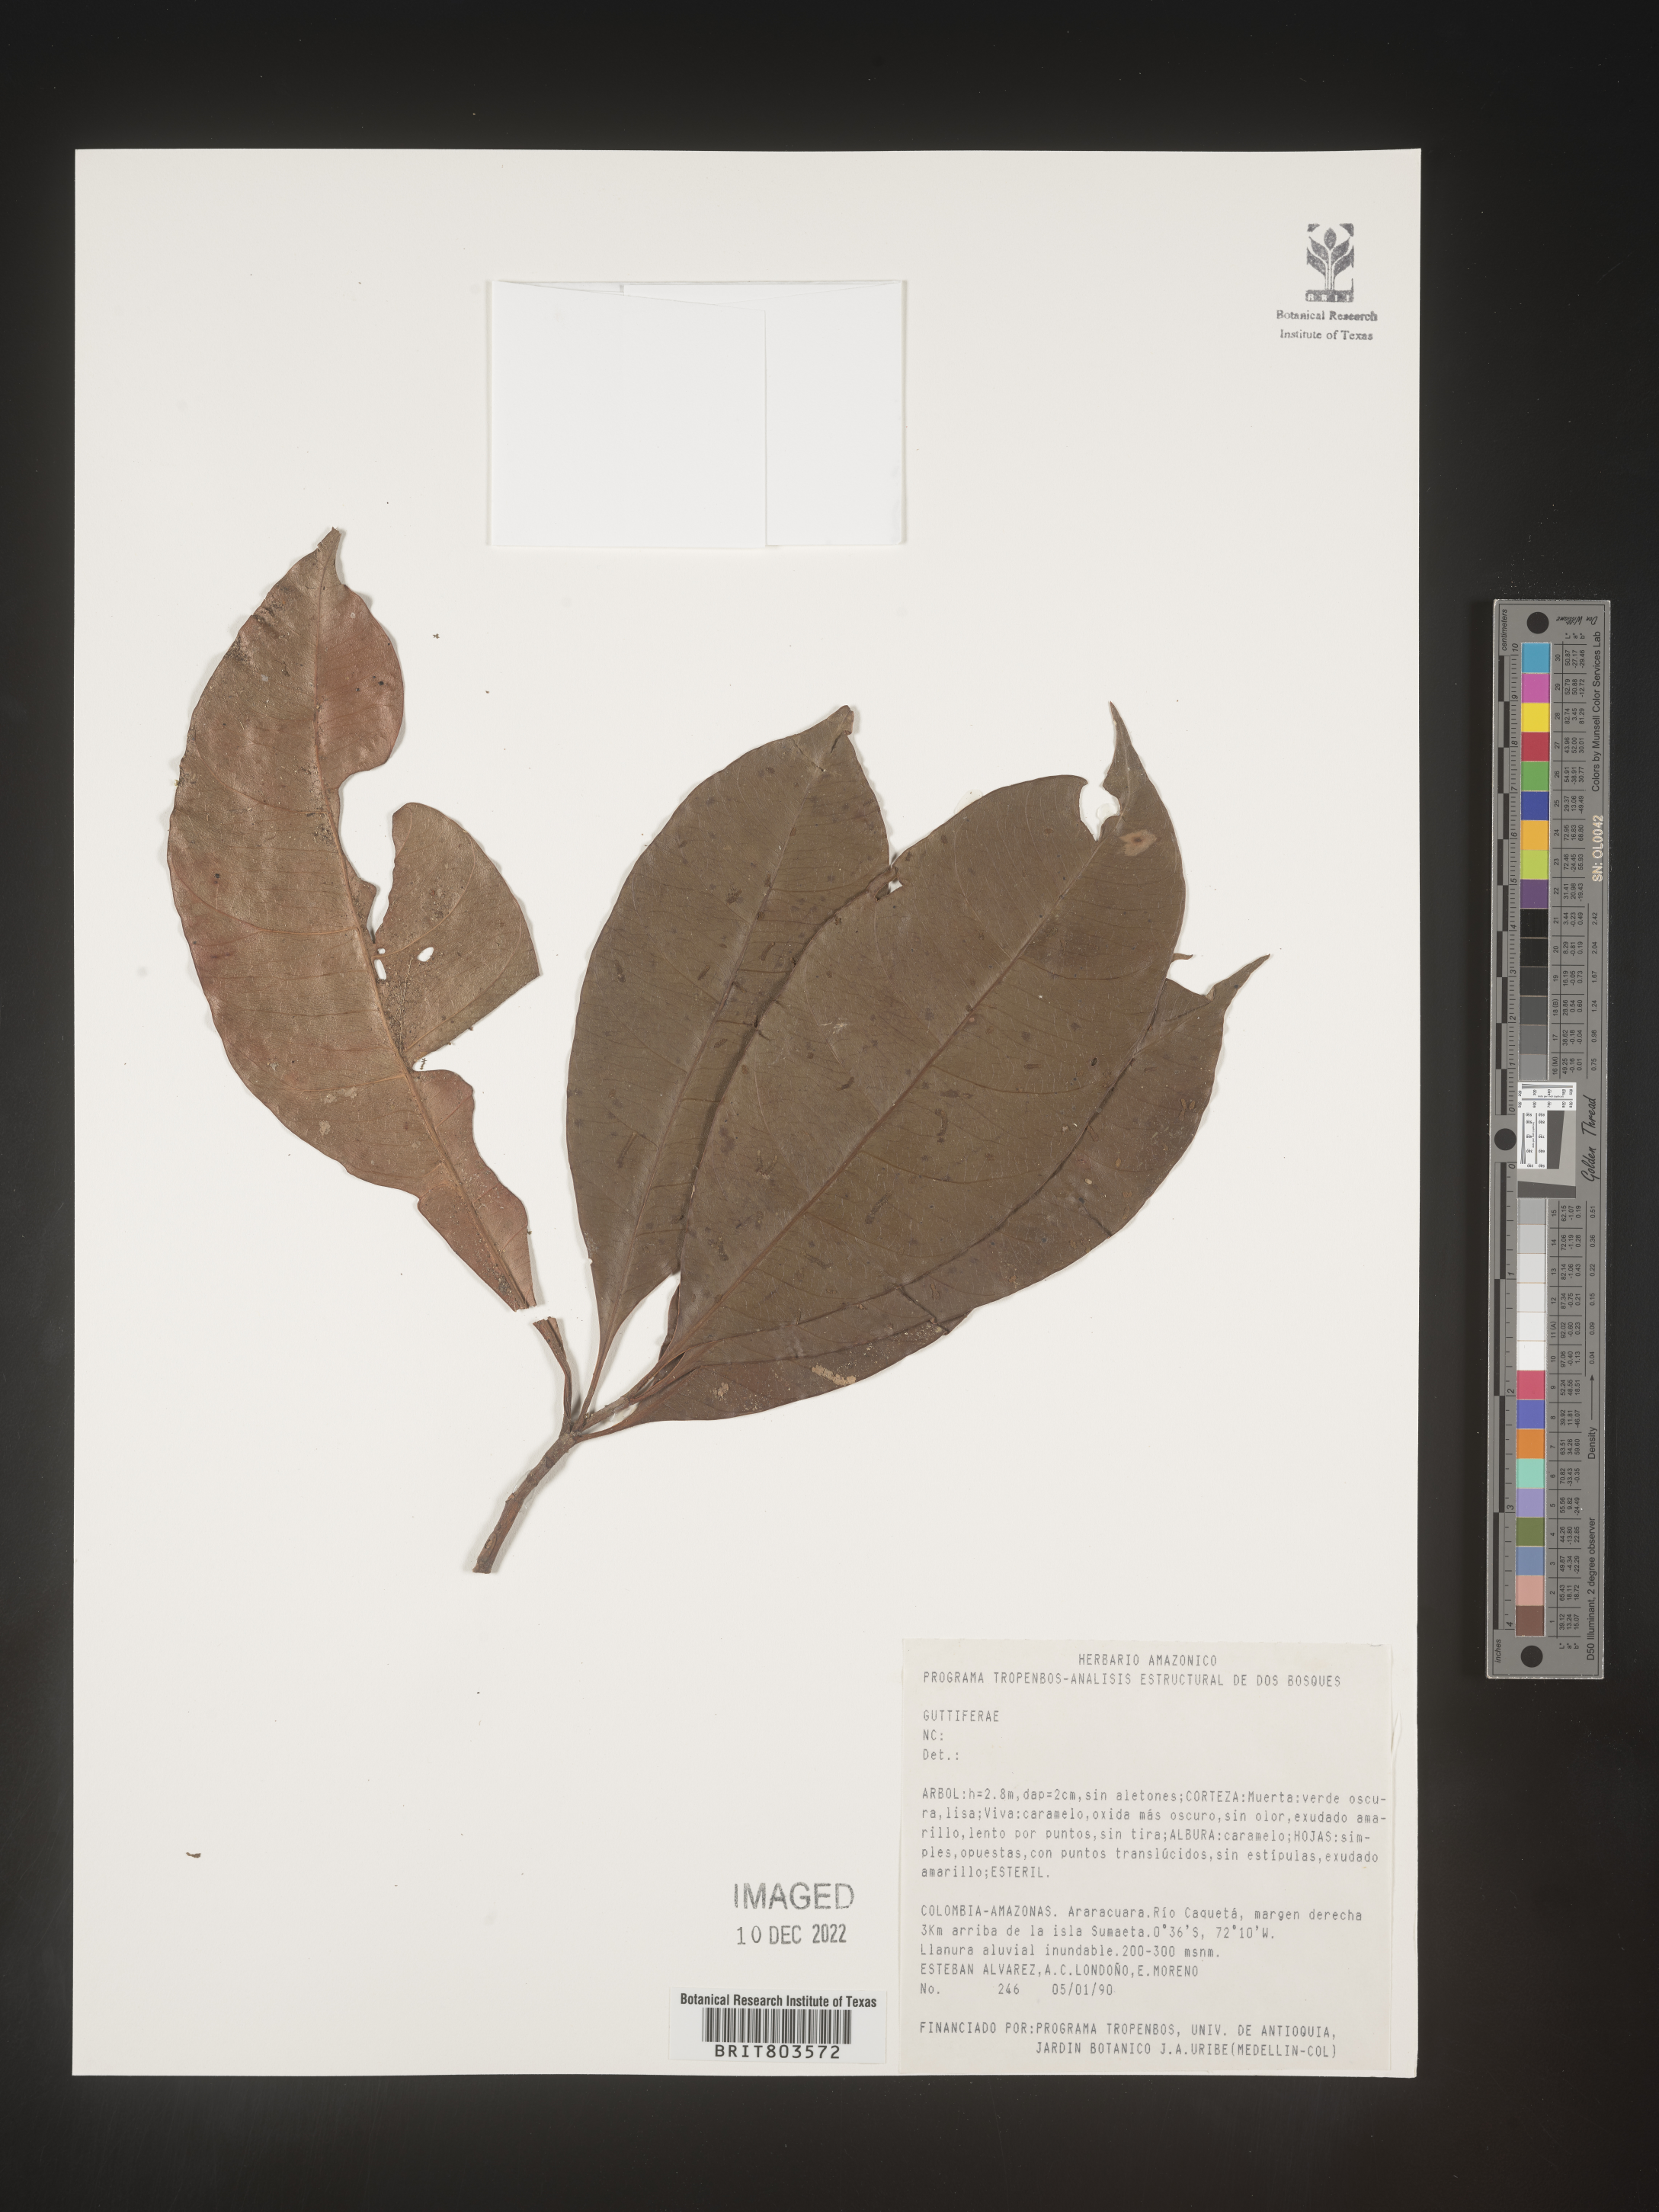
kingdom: Plantae
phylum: Tracheophyta
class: Magnoliopsida
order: Malpighiales
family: Clusiaceae
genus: Tovomita
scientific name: Tovomita
